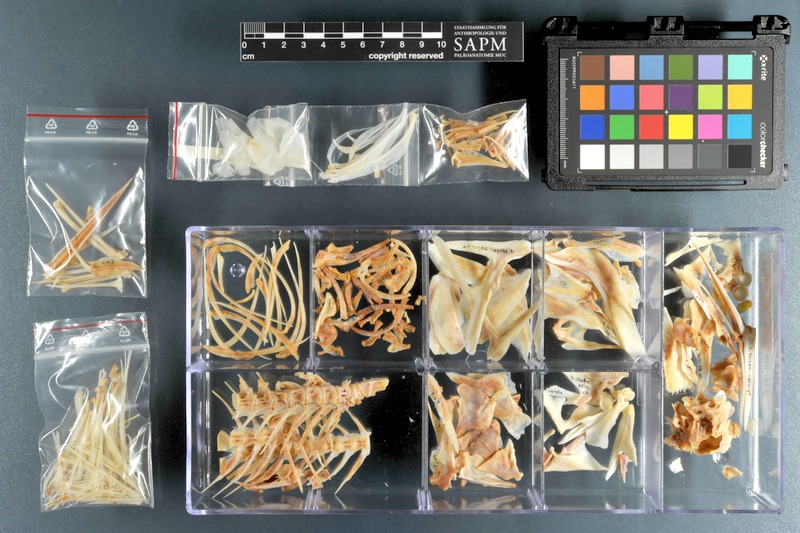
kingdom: Animalia
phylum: Chordata
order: Beryciformes
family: Holocentridae
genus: Sargocentron
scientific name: Sargocentron spiniferum
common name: Giant squirrelfish
